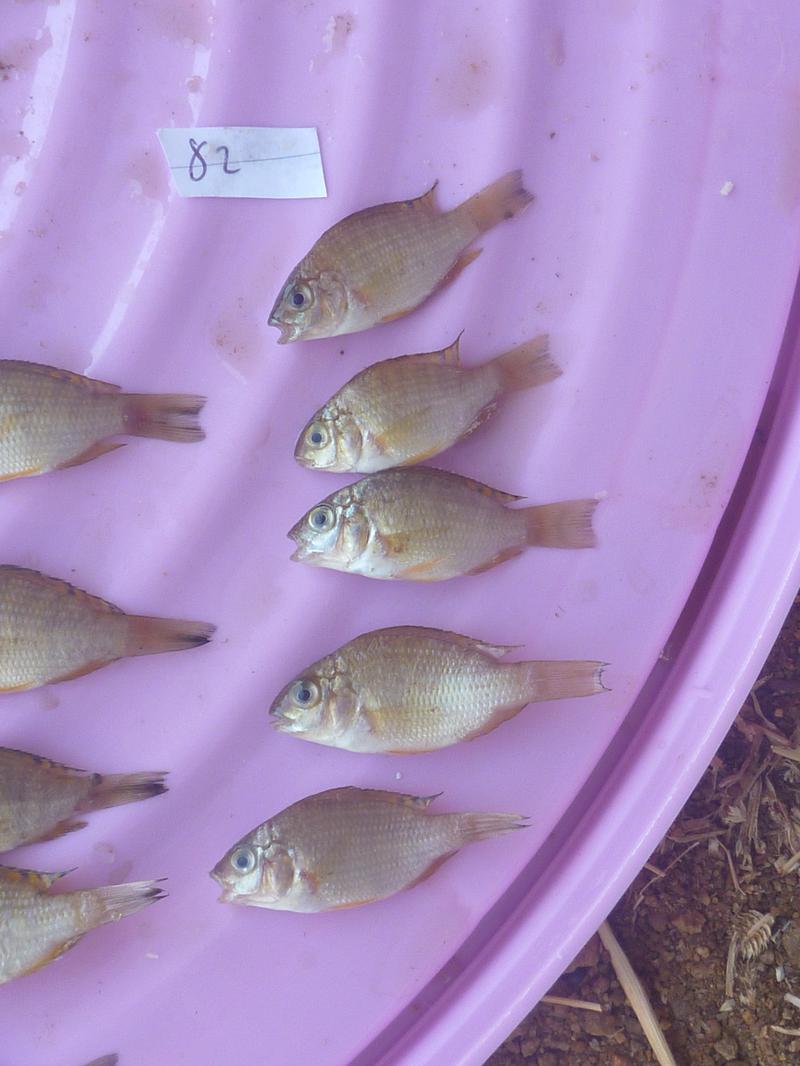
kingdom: Animalia
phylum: Chordata
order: Perciformes
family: Cichlidae
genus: Coptodon
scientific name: Coptodon rendalli
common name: Redbreast tilapia
